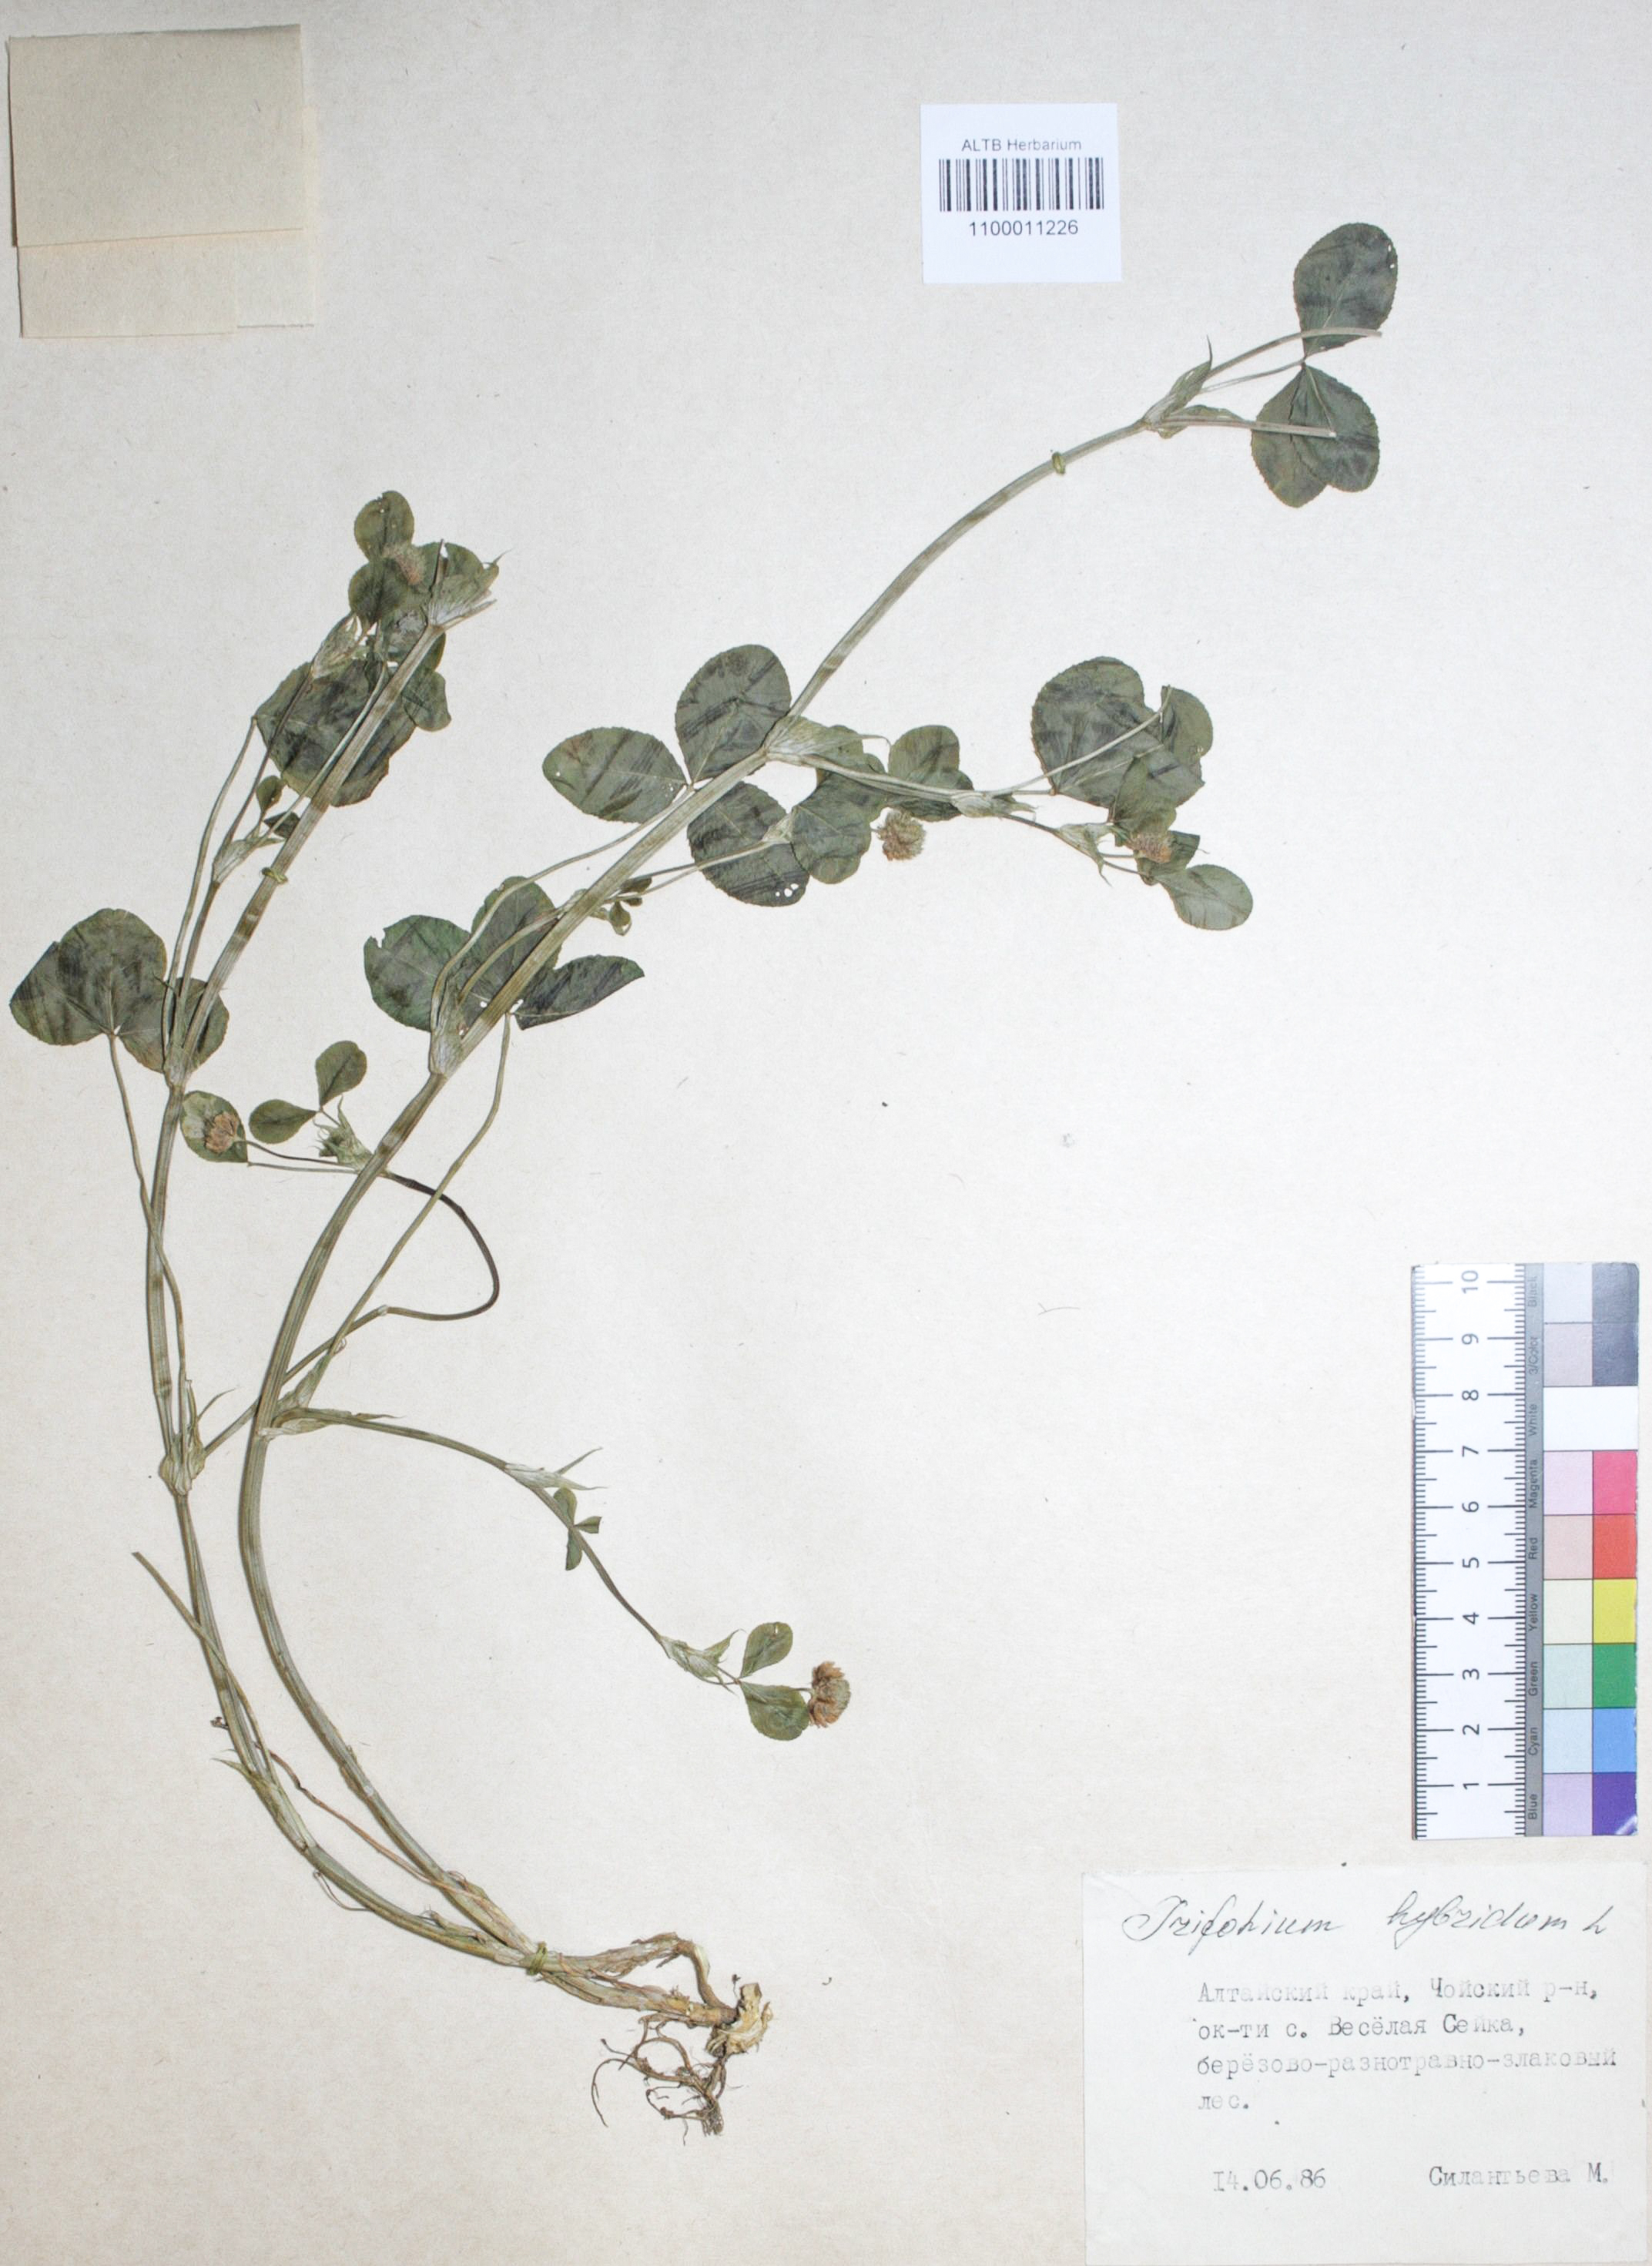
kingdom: Plantae
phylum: Tracheophyta
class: Magnoliopsida
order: Fabales
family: Fabaceae
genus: Trifolium
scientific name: Trifolium hybridum
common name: Alsike clover
